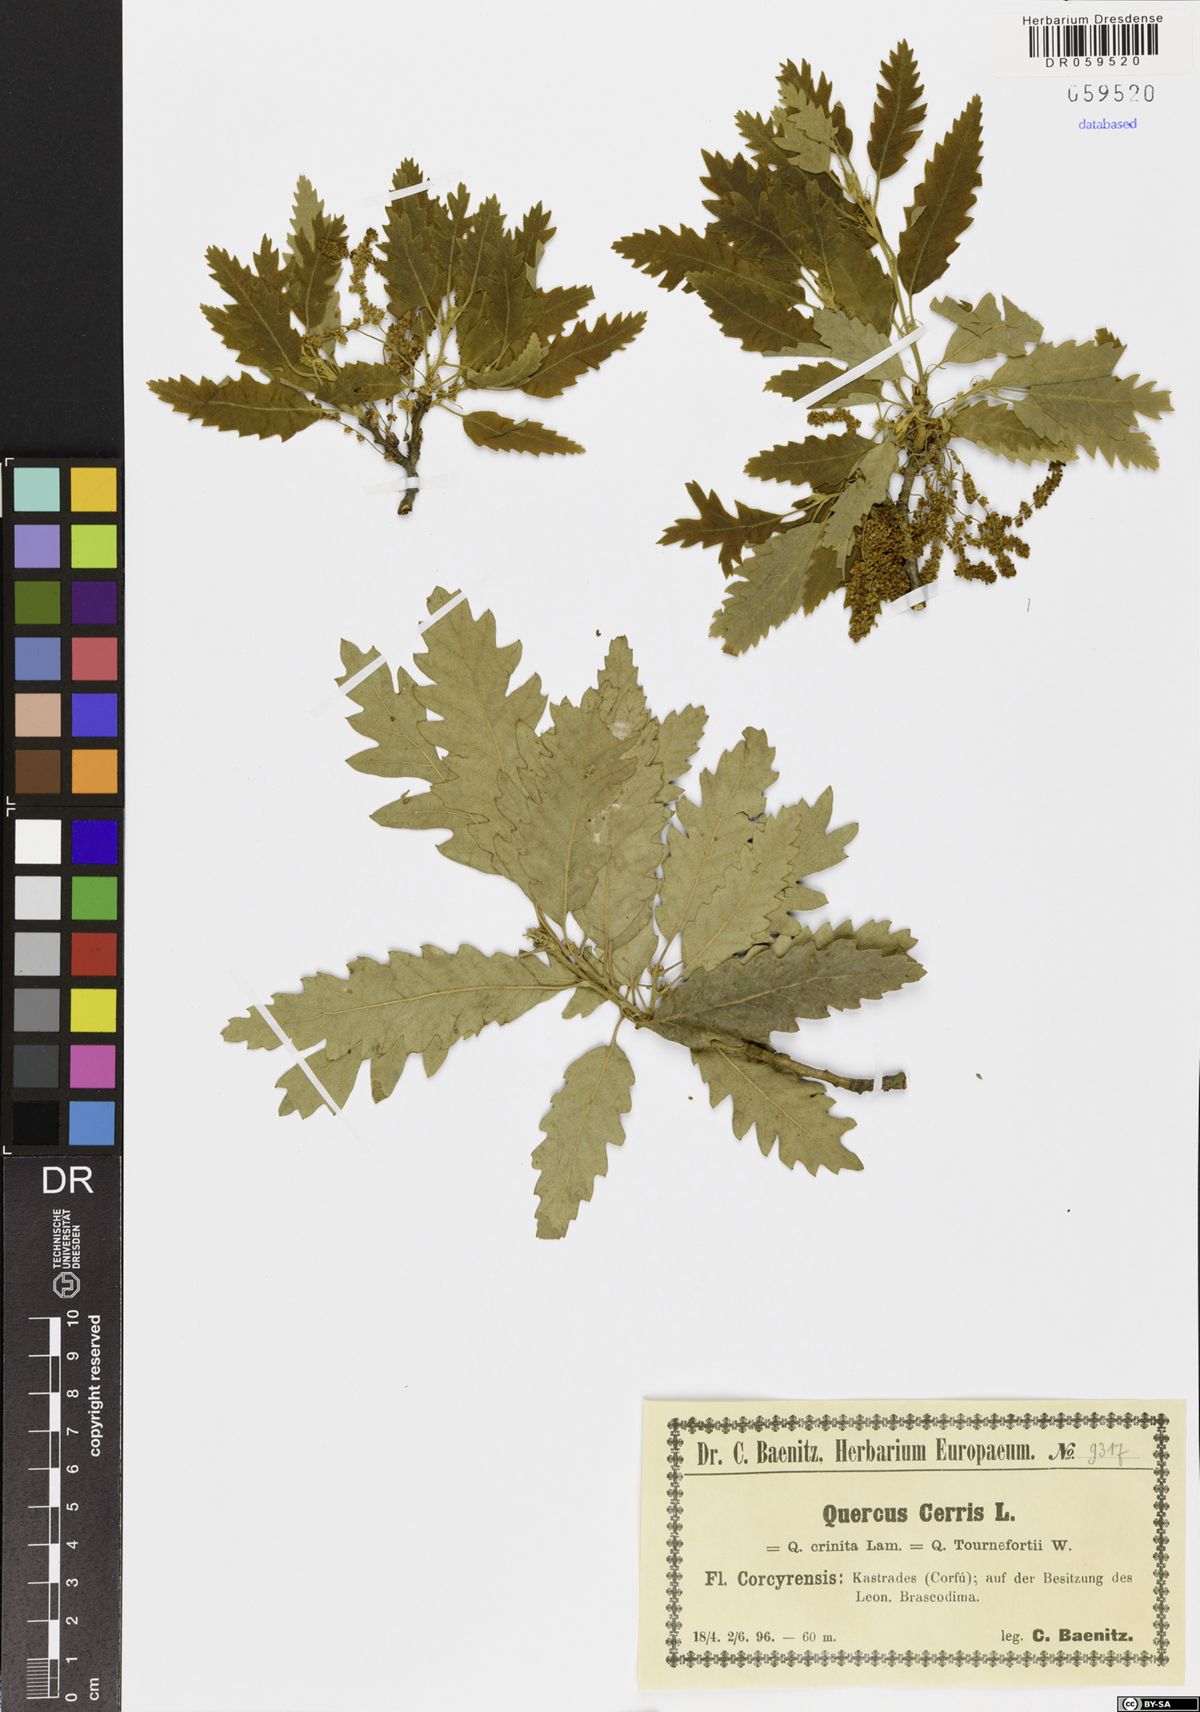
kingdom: Plantae
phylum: Tracheophyta
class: Magnoliopsida
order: Fagales
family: Fagaceae
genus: Quercus
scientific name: Quercus cerris
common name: Turkey oak
